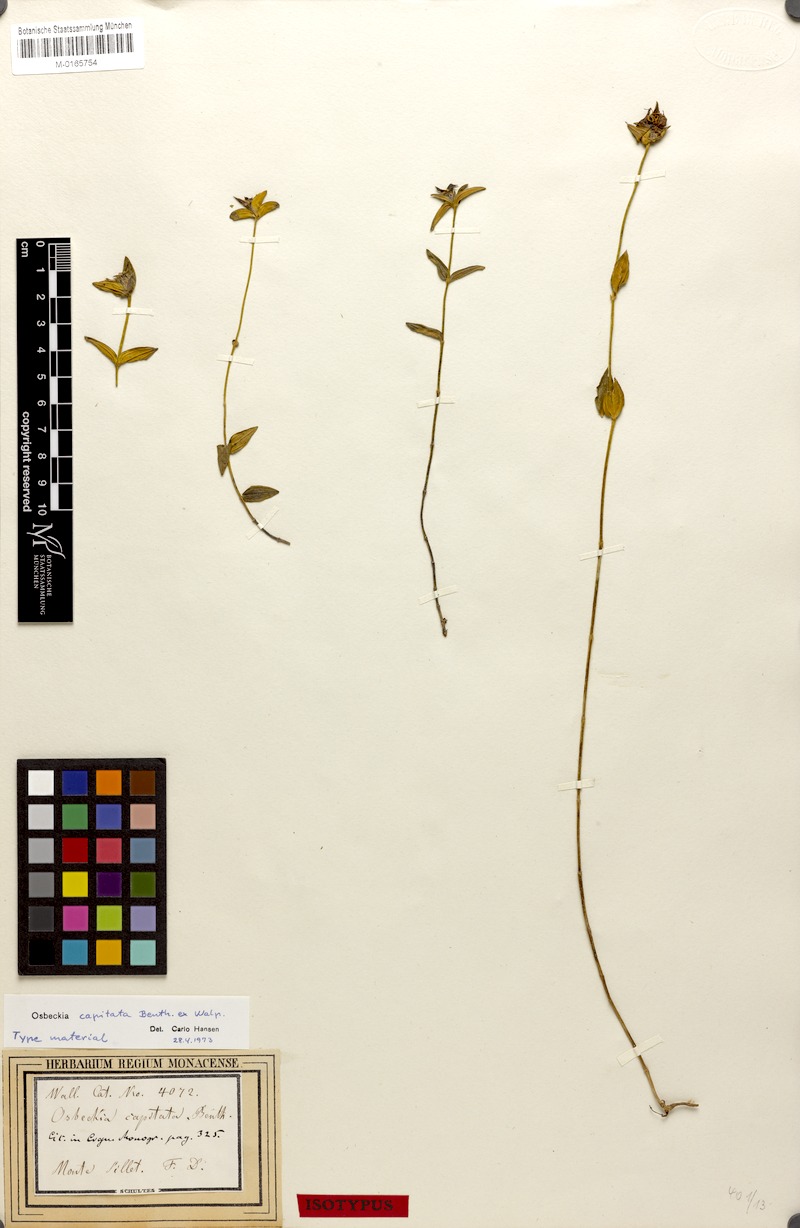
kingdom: Plantae
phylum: Tracheophyta
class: Magnoliopsida
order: Myrtales
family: Melastomataceae
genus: Osbeckia
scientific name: Osbeckia capitata
